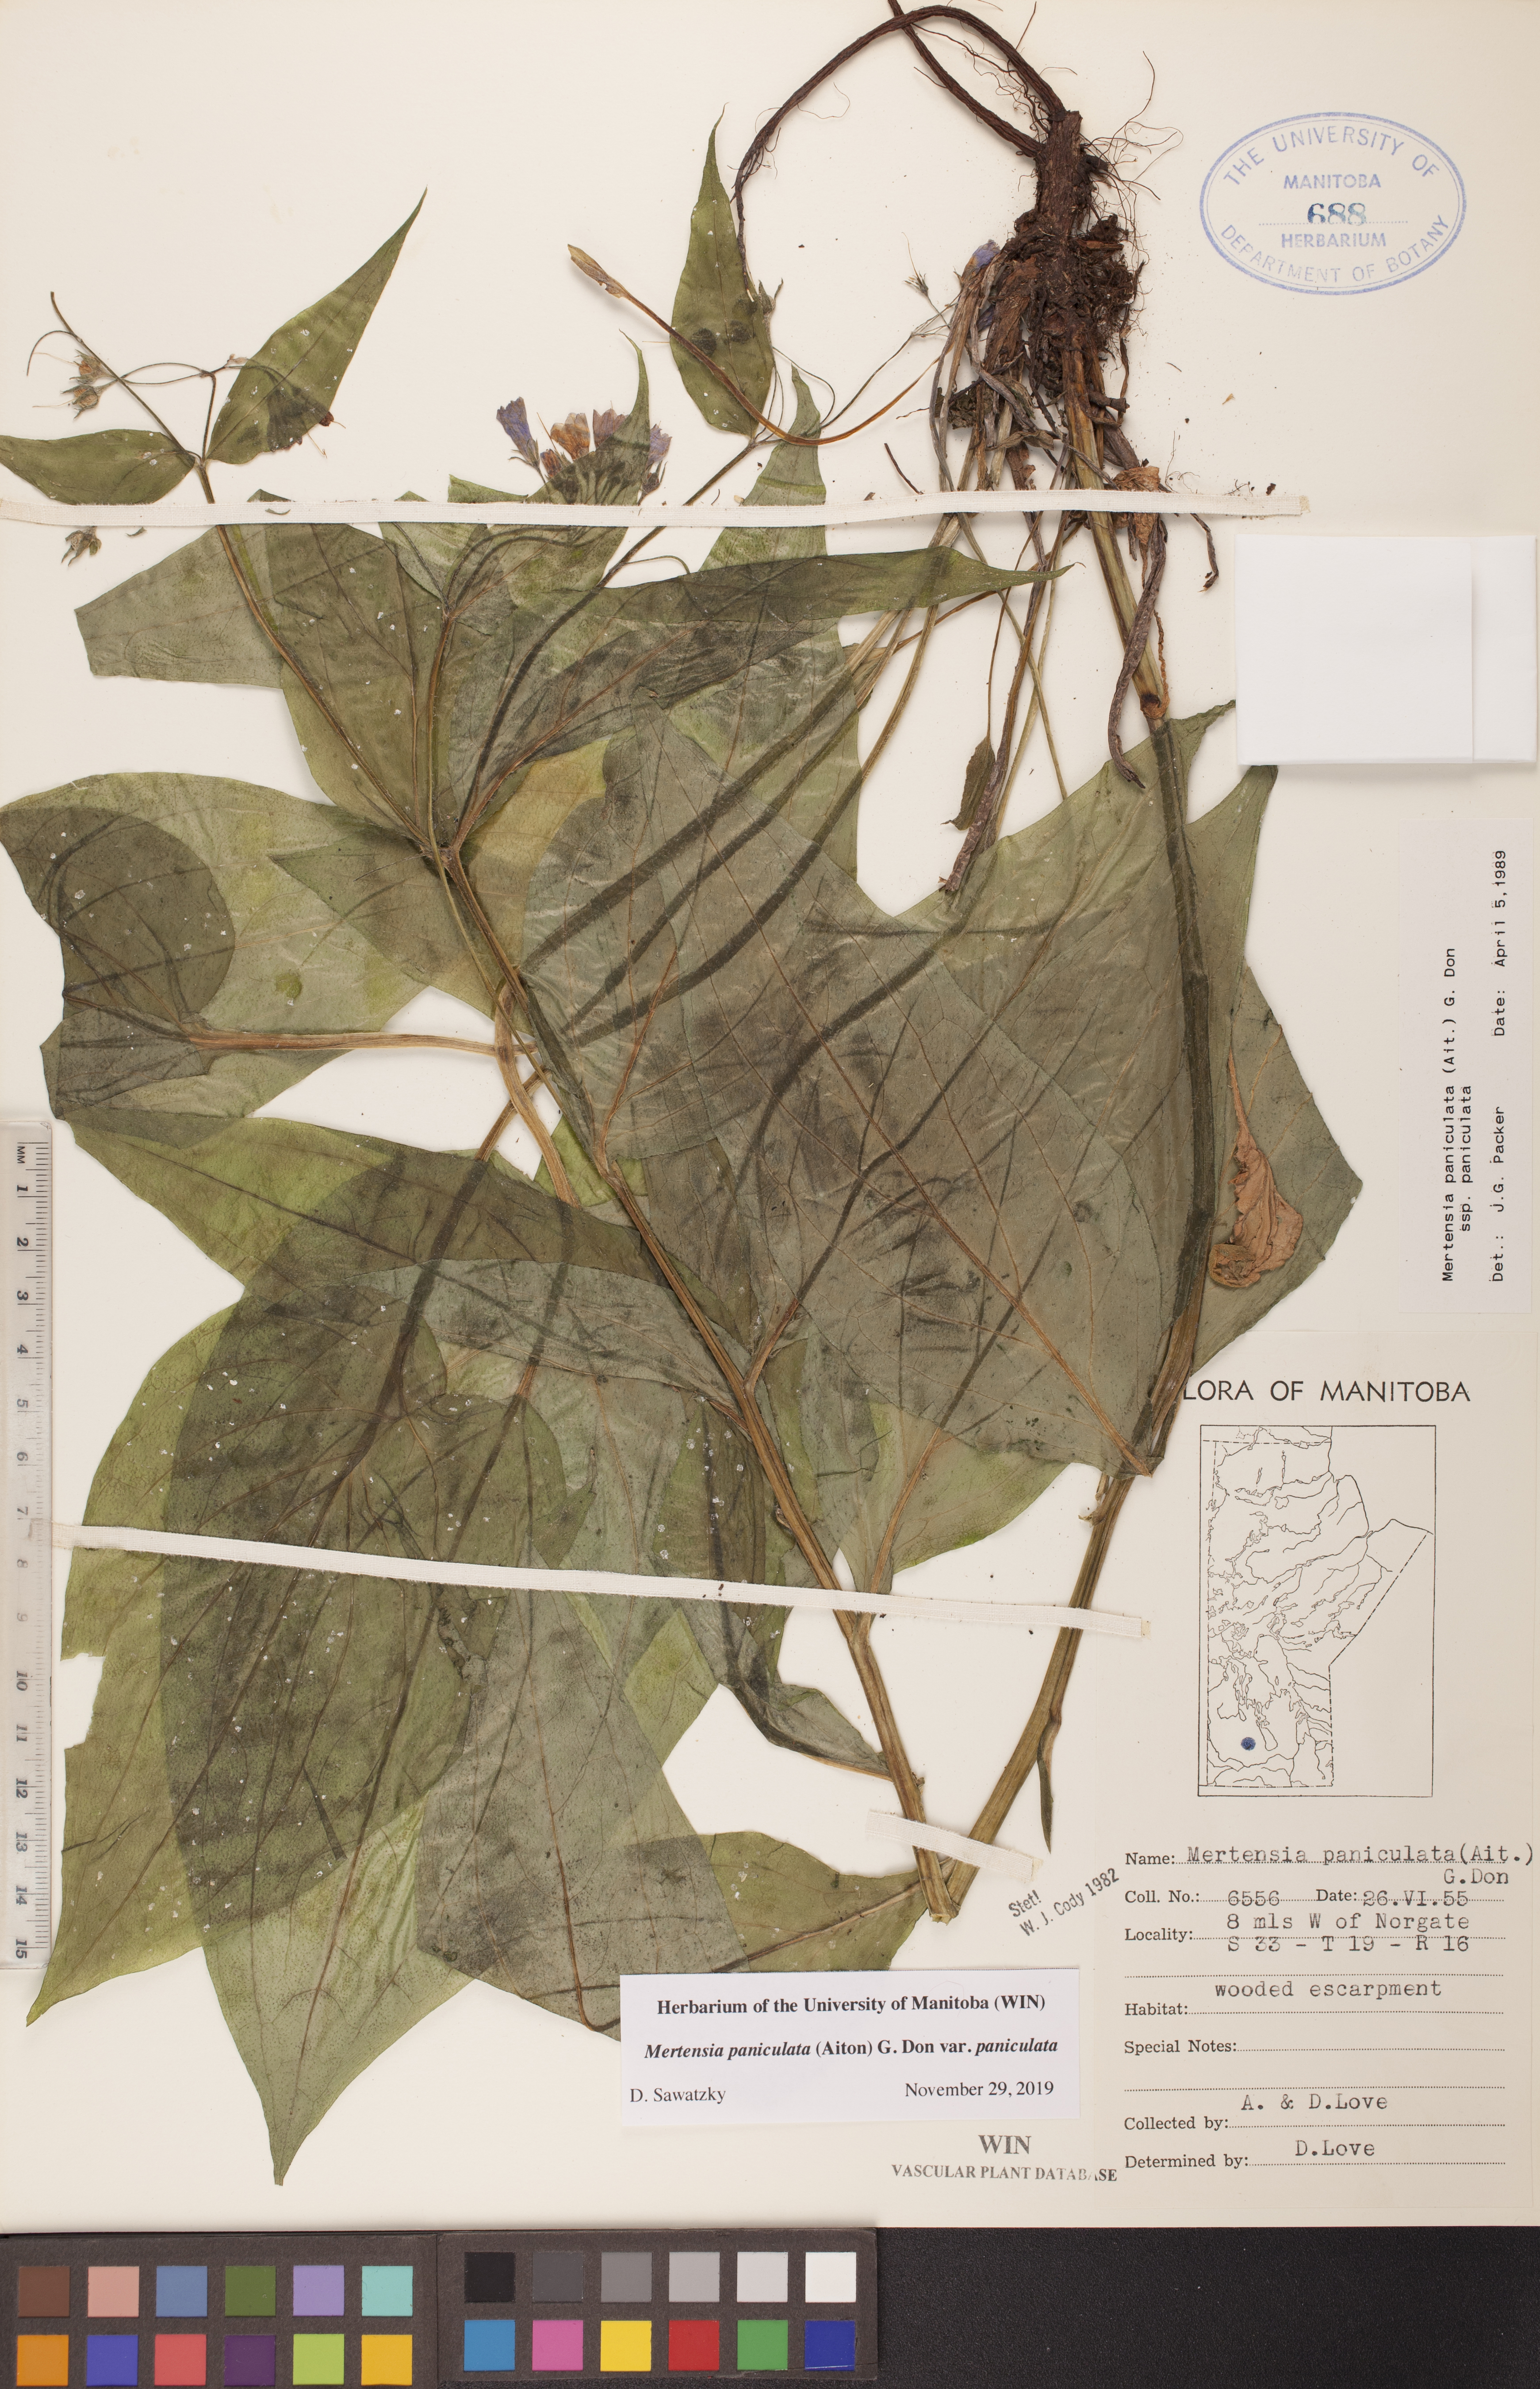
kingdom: Plantae
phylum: Tracheophyta
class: Magnoliopsida
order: Boraginales
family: Boraginaceae
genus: Mertensia
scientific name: Mertensia paniculata
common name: Panicled bluebells
